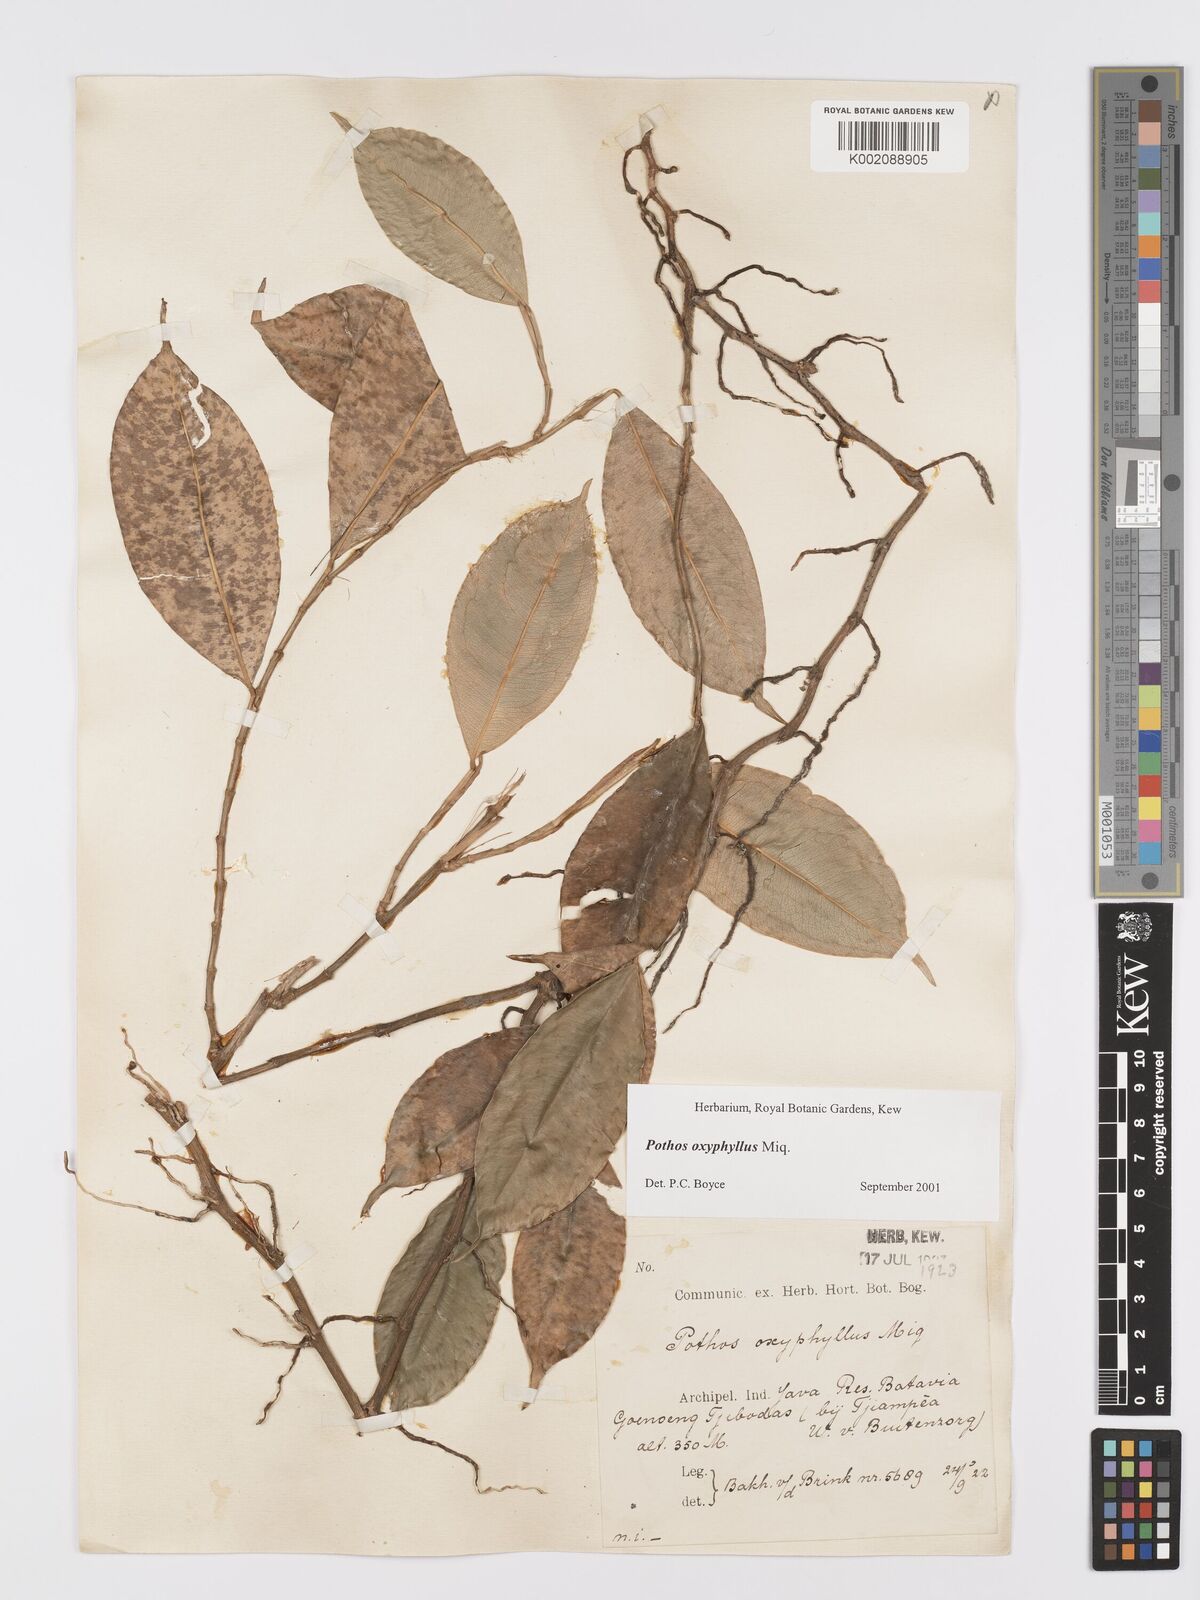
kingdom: Plantae
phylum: Tracheophyta
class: Liliopsida
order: Alismatales
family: Araceae
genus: Pothos
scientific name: Pothos oxyphyllus
